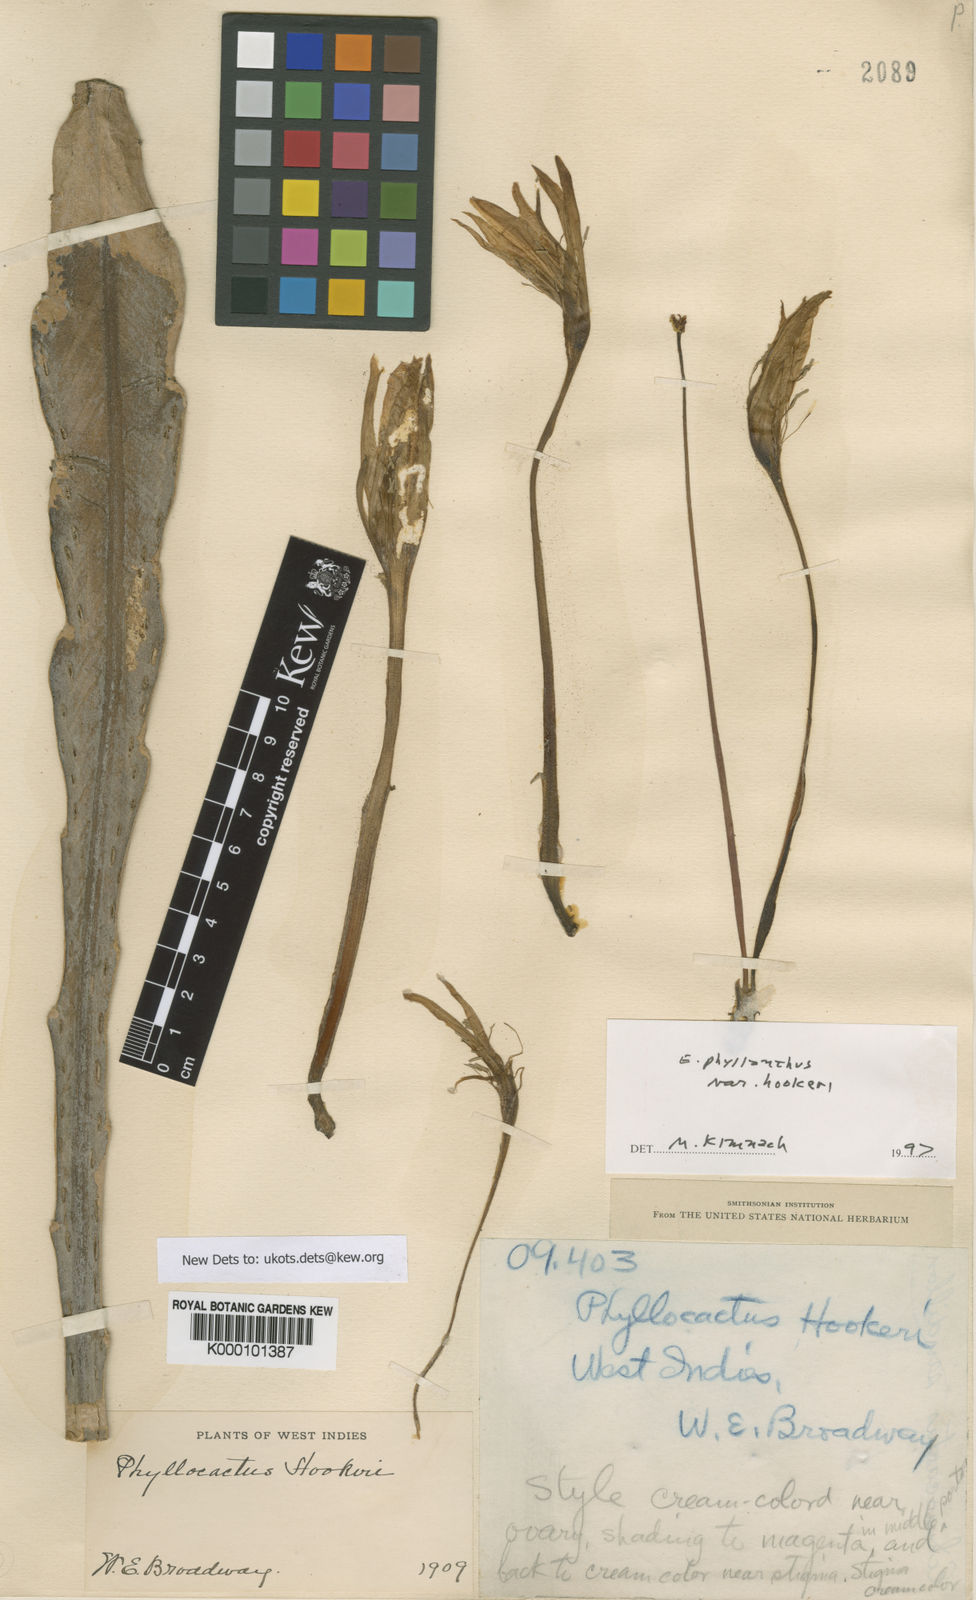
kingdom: Plantae
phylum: Tracheophyta
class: Magnoliopsida
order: Caryophyllales
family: Cactaceae
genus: Epiphyllum
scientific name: Epiphyllum phyllanthus
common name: Climbing cactus
